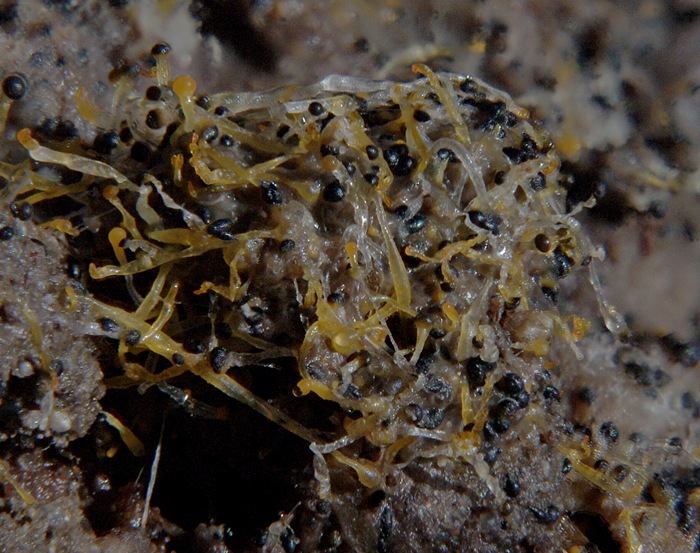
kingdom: Fungi
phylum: Mucoromycota
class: Mucoromycetes
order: Mucorales
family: Pilobolaceae
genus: Pilobolus
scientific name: Pilobolus
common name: boldkaster
